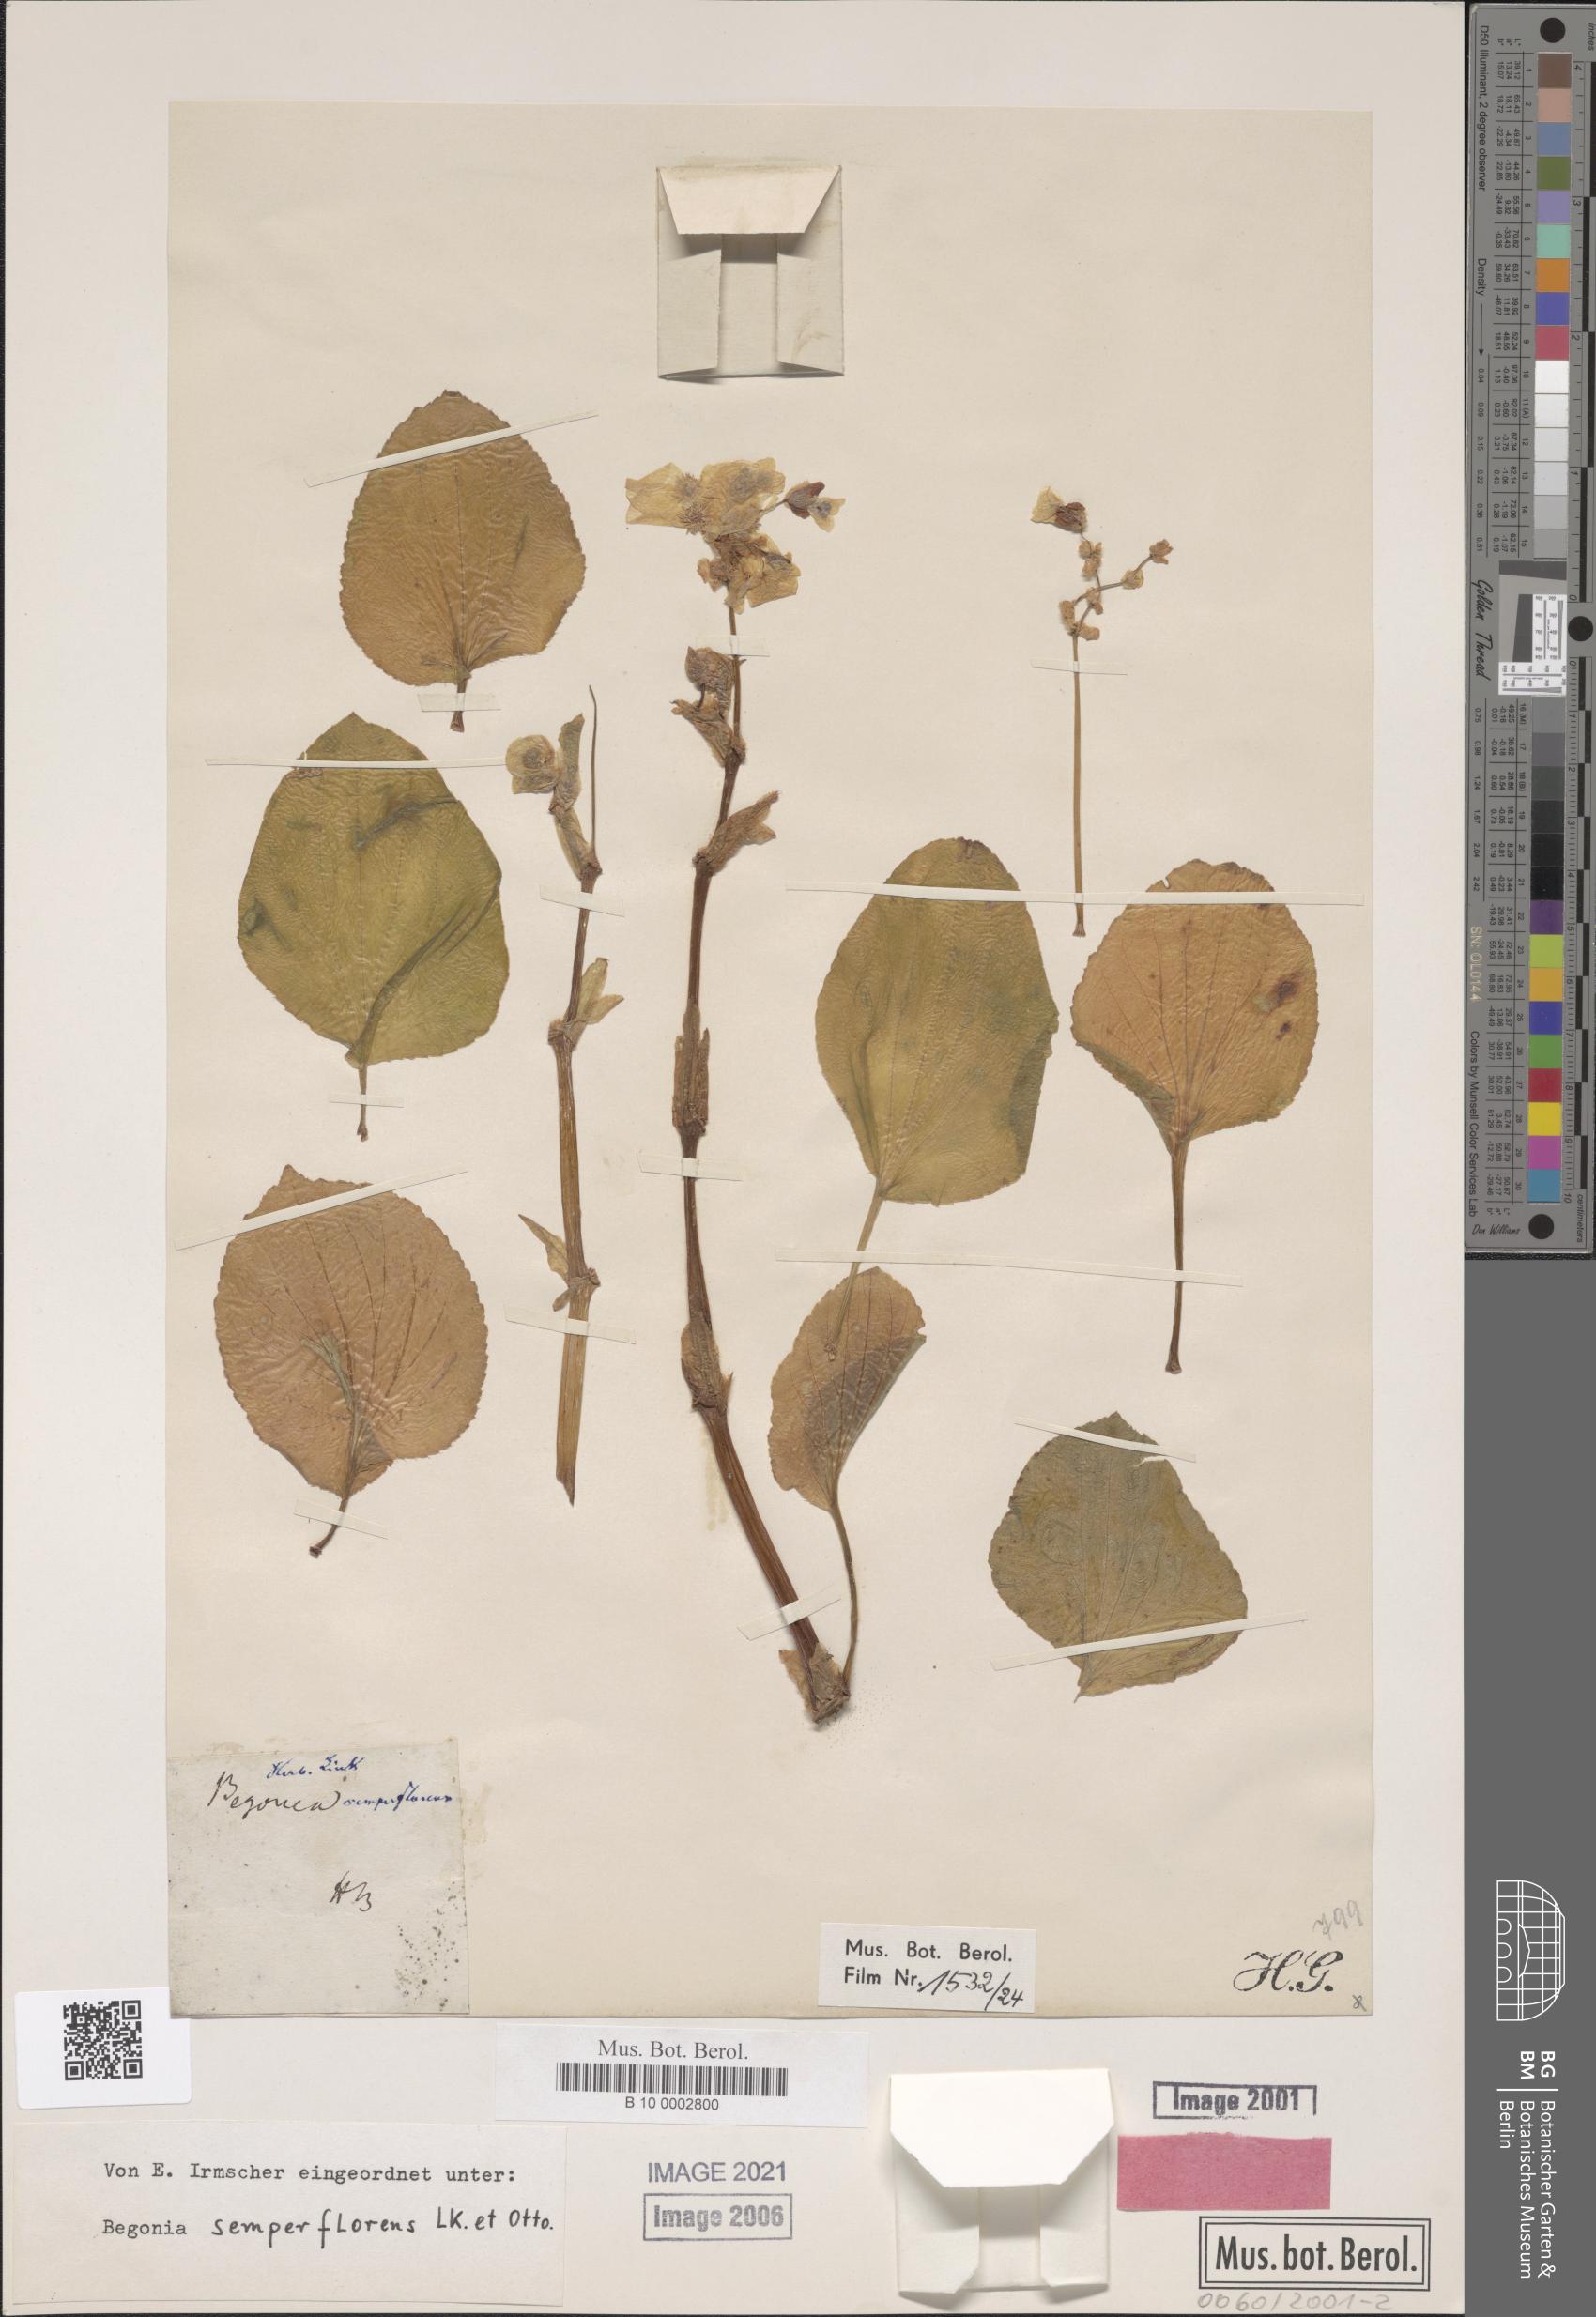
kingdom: Plantae
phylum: Tracheophyta
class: Magnoliopsida
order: Cucurbitales
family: Begoniaceae
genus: Begonia
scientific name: Begonia cucullata
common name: Clubbed begonia
